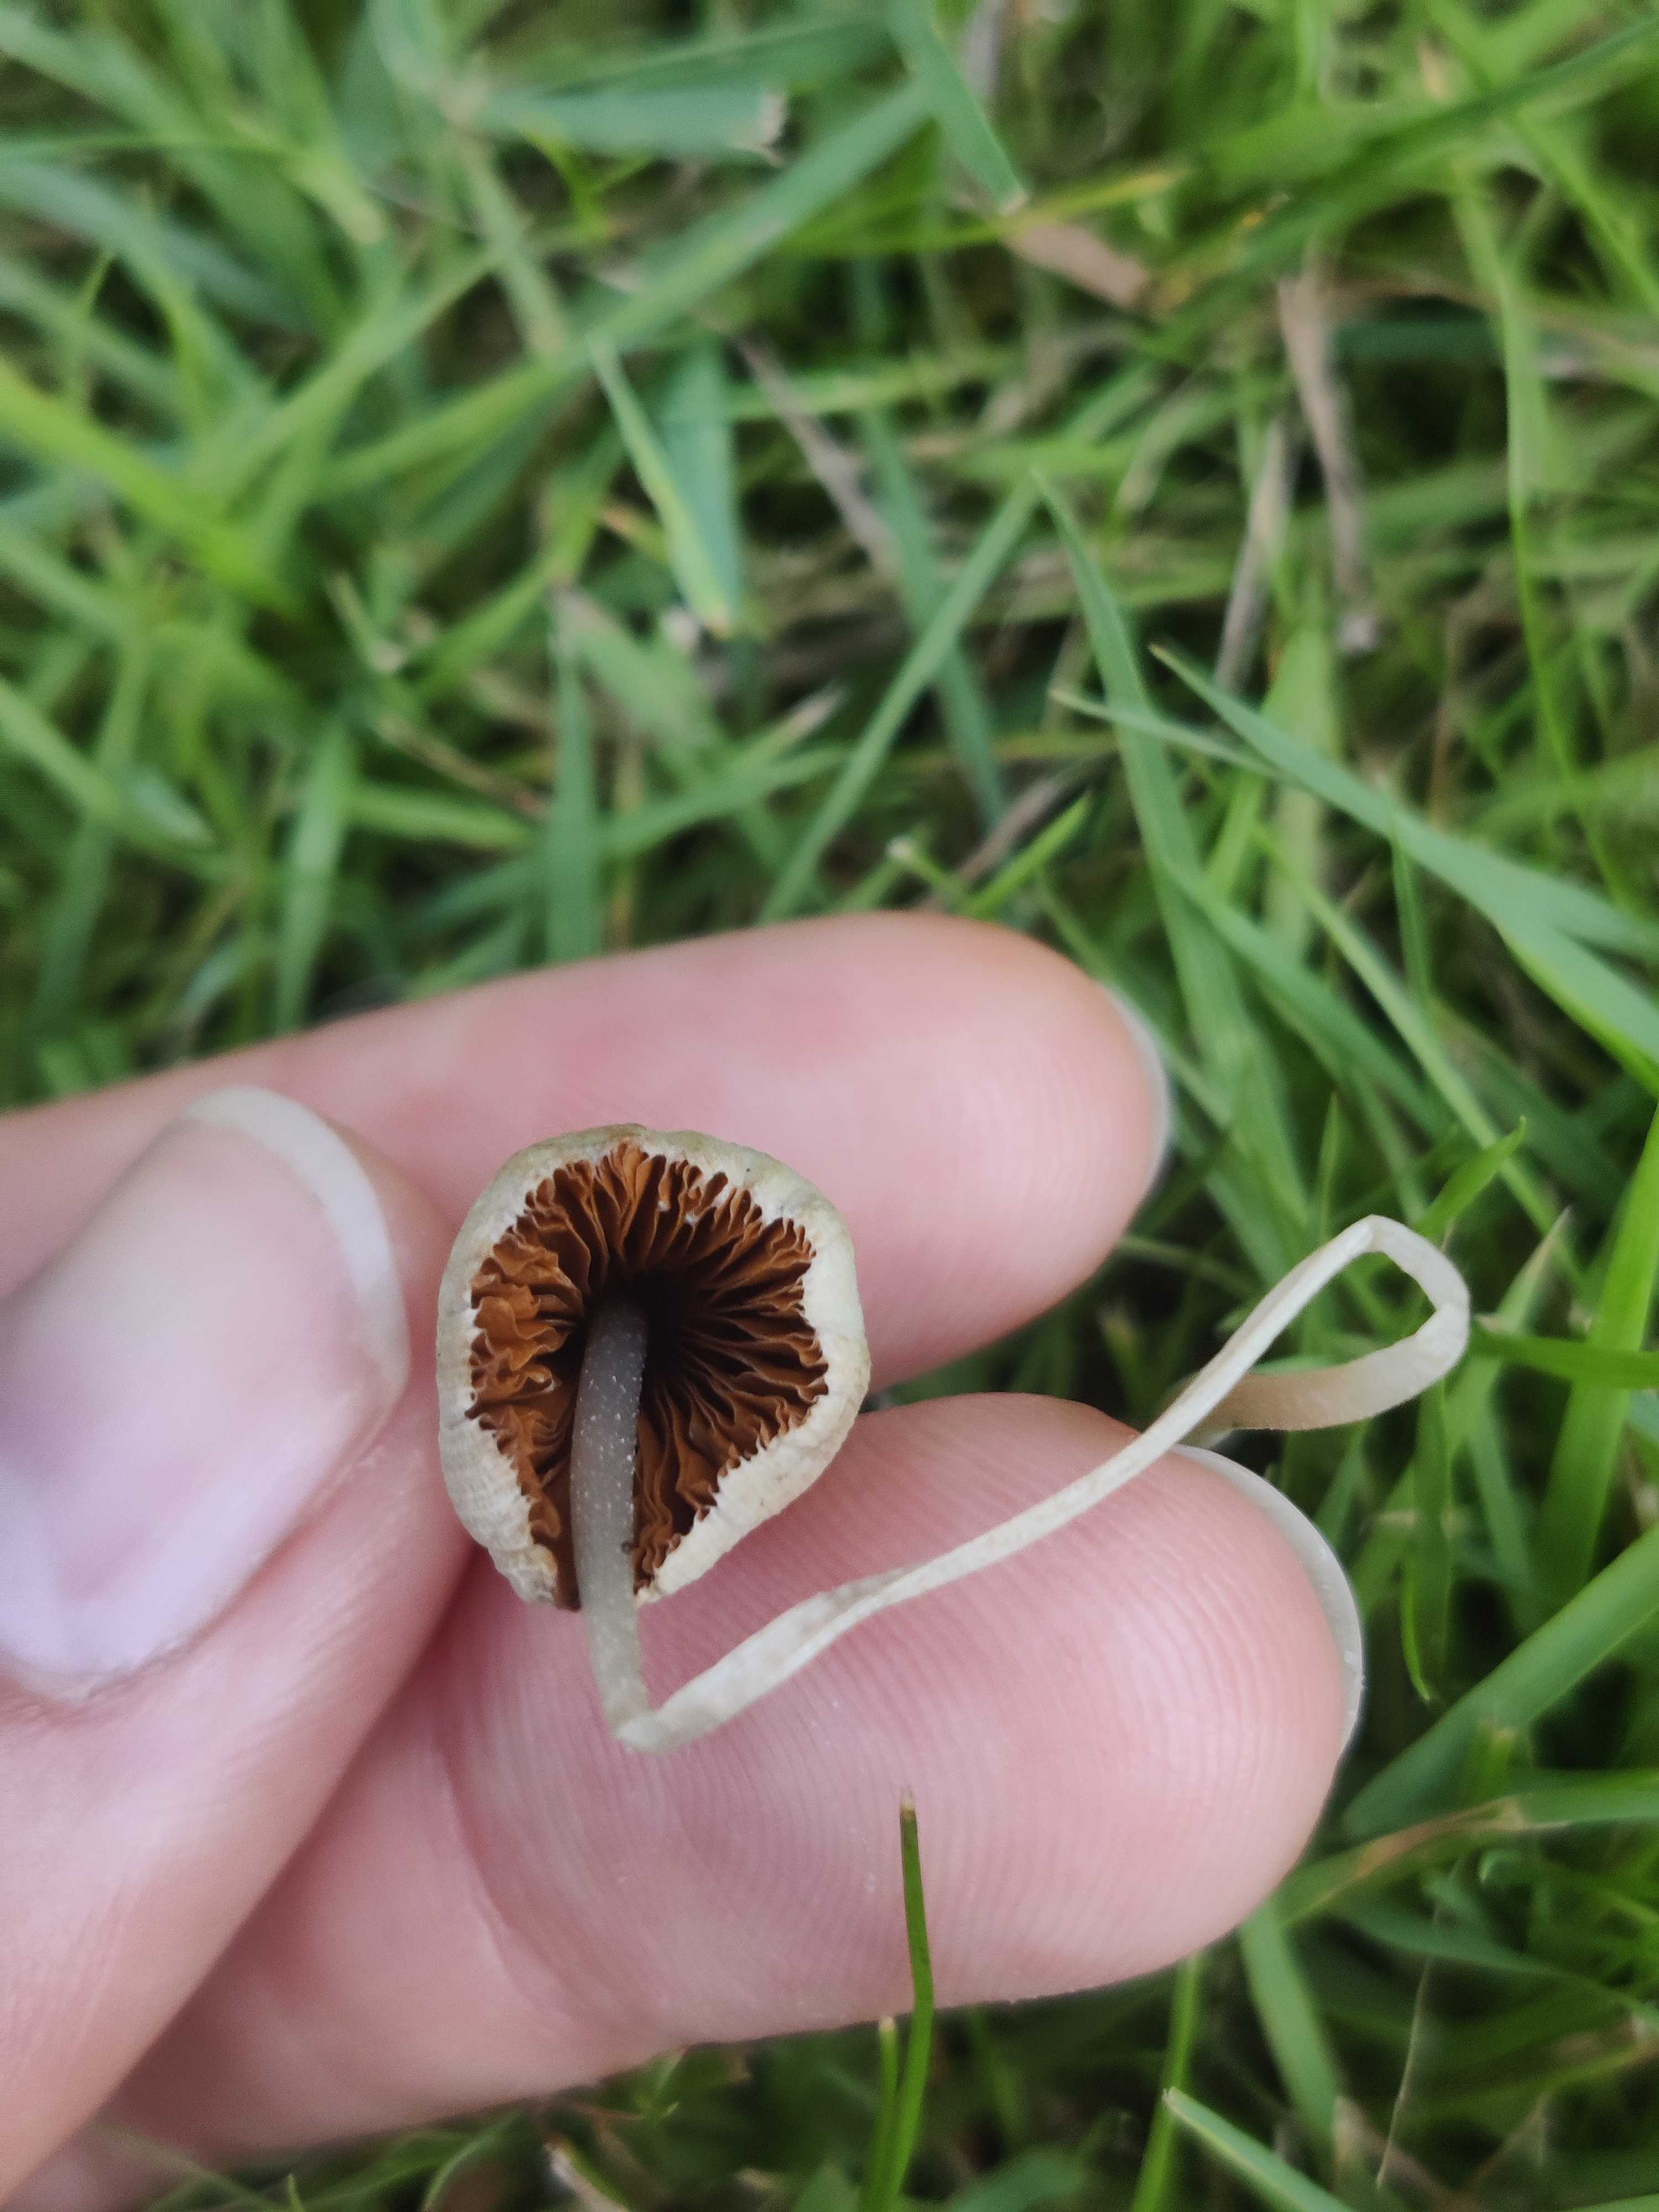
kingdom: Fungi
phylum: Basidiomycota
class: Agaricomycetes
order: Agaricales
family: Bolbitiaceae
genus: Conocybe
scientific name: Conocybe apala
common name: mælkehvid keglehat
